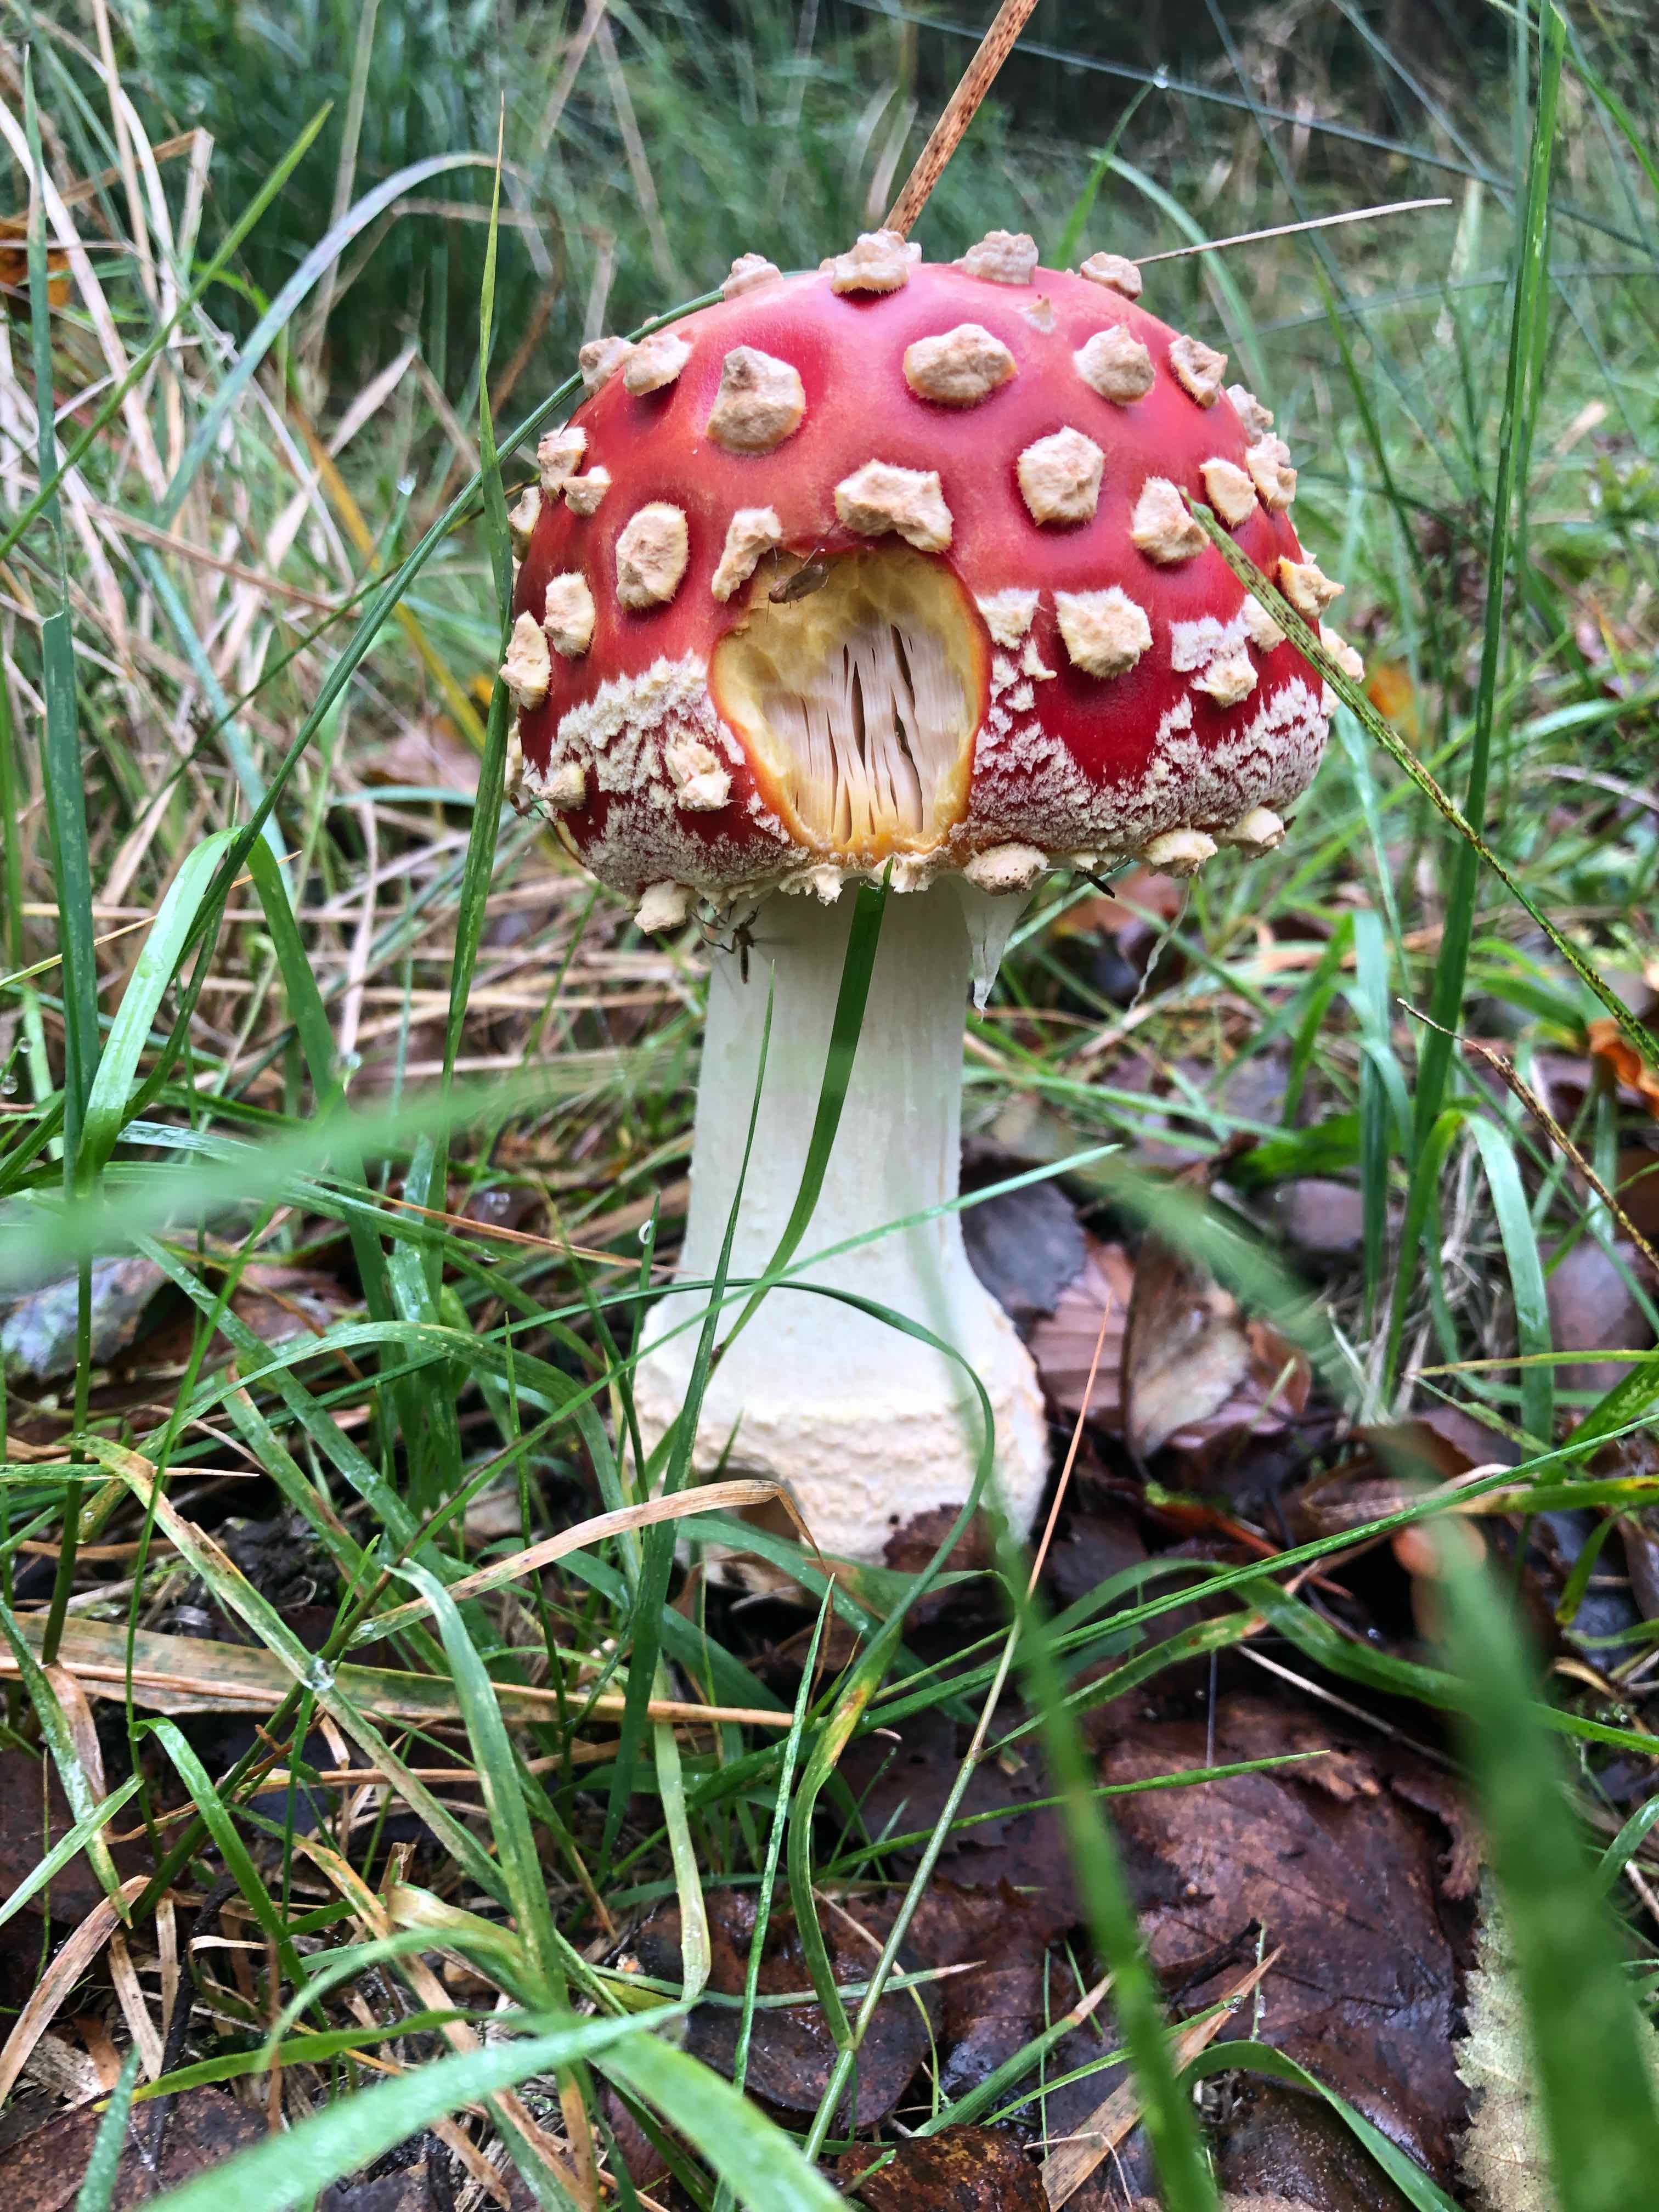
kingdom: Fungi
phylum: Basidiomycota
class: Agaricomycetes
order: Agaricales
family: Amanitaceae
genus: Amanita
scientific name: Amanita muscaria
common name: rød fluesvamp
